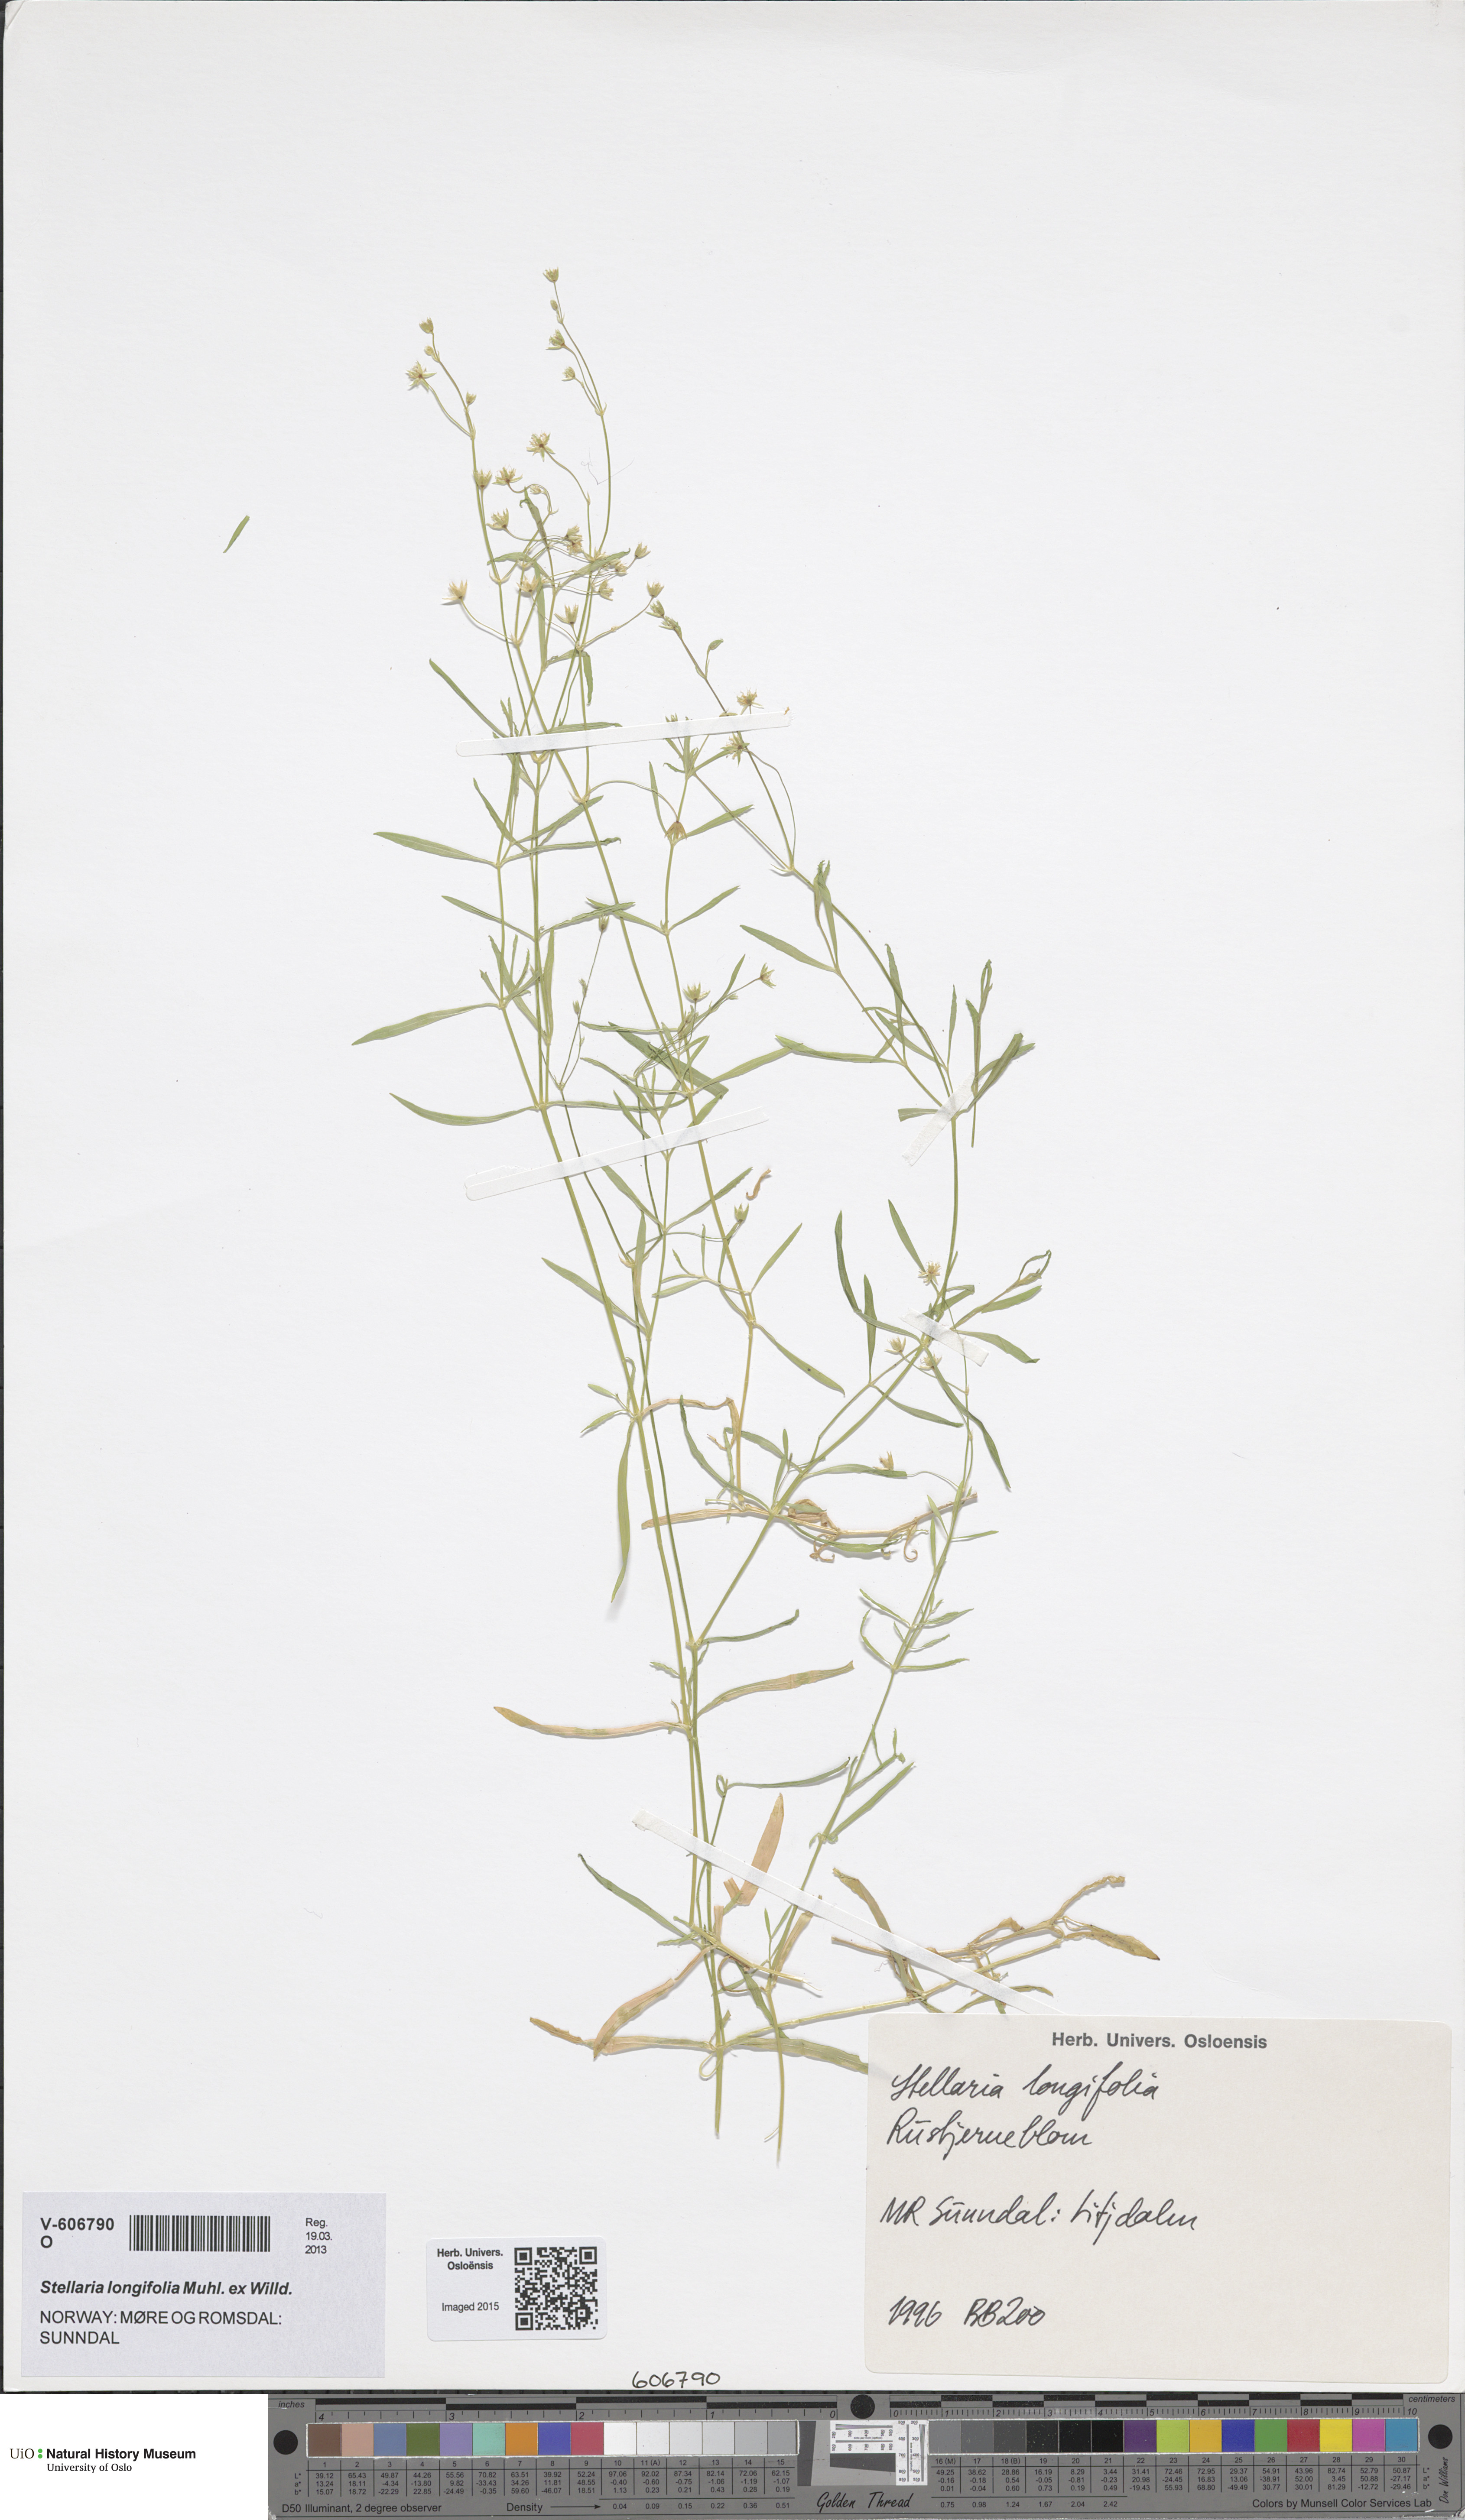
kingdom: Plantae
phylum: Tracheophyta
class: Magnoliopsida
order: Caryophyllales
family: Caryophyllaceae
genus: Stellaria
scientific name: Stellaria longifolia
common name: Long-leaved chickweed
